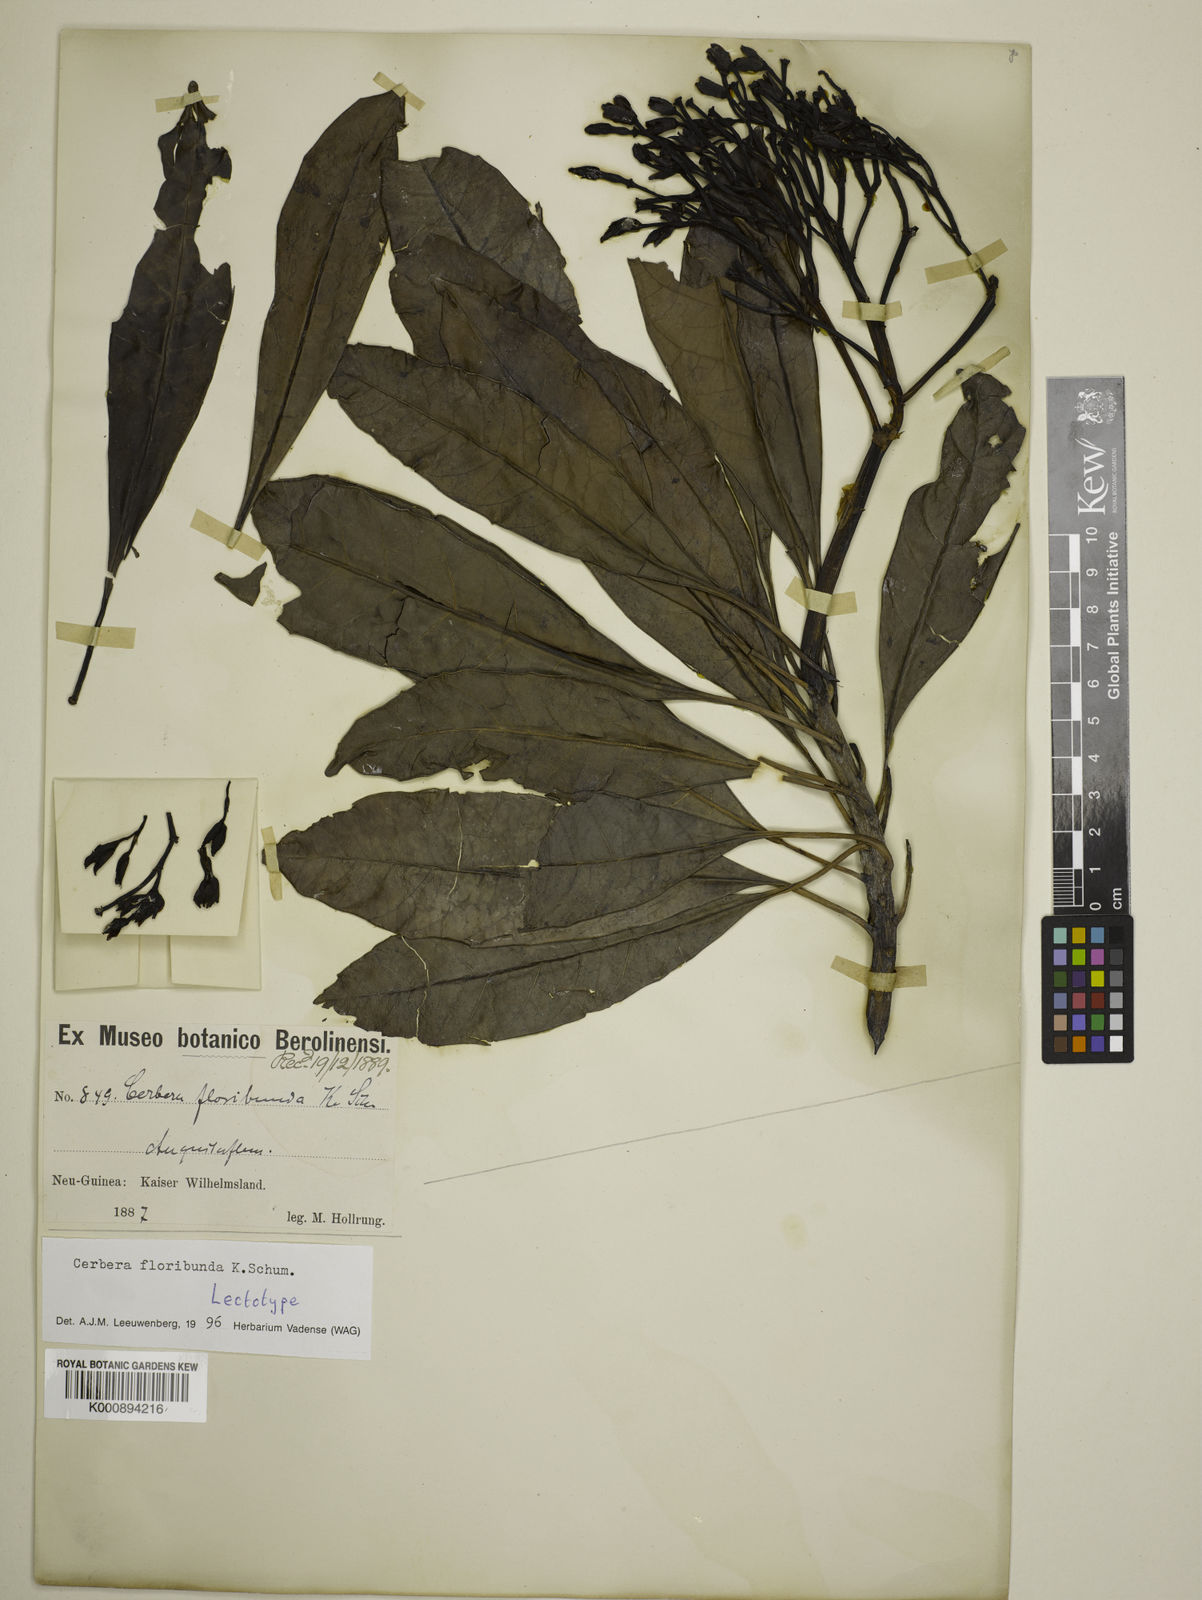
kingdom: Plantae
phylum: Tracheophyta
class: Magnoliopsida
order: Gentianales
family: Apocynaceae
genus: Cerbera
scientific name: Cerbera floribunda
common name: Cassowary plumtree
